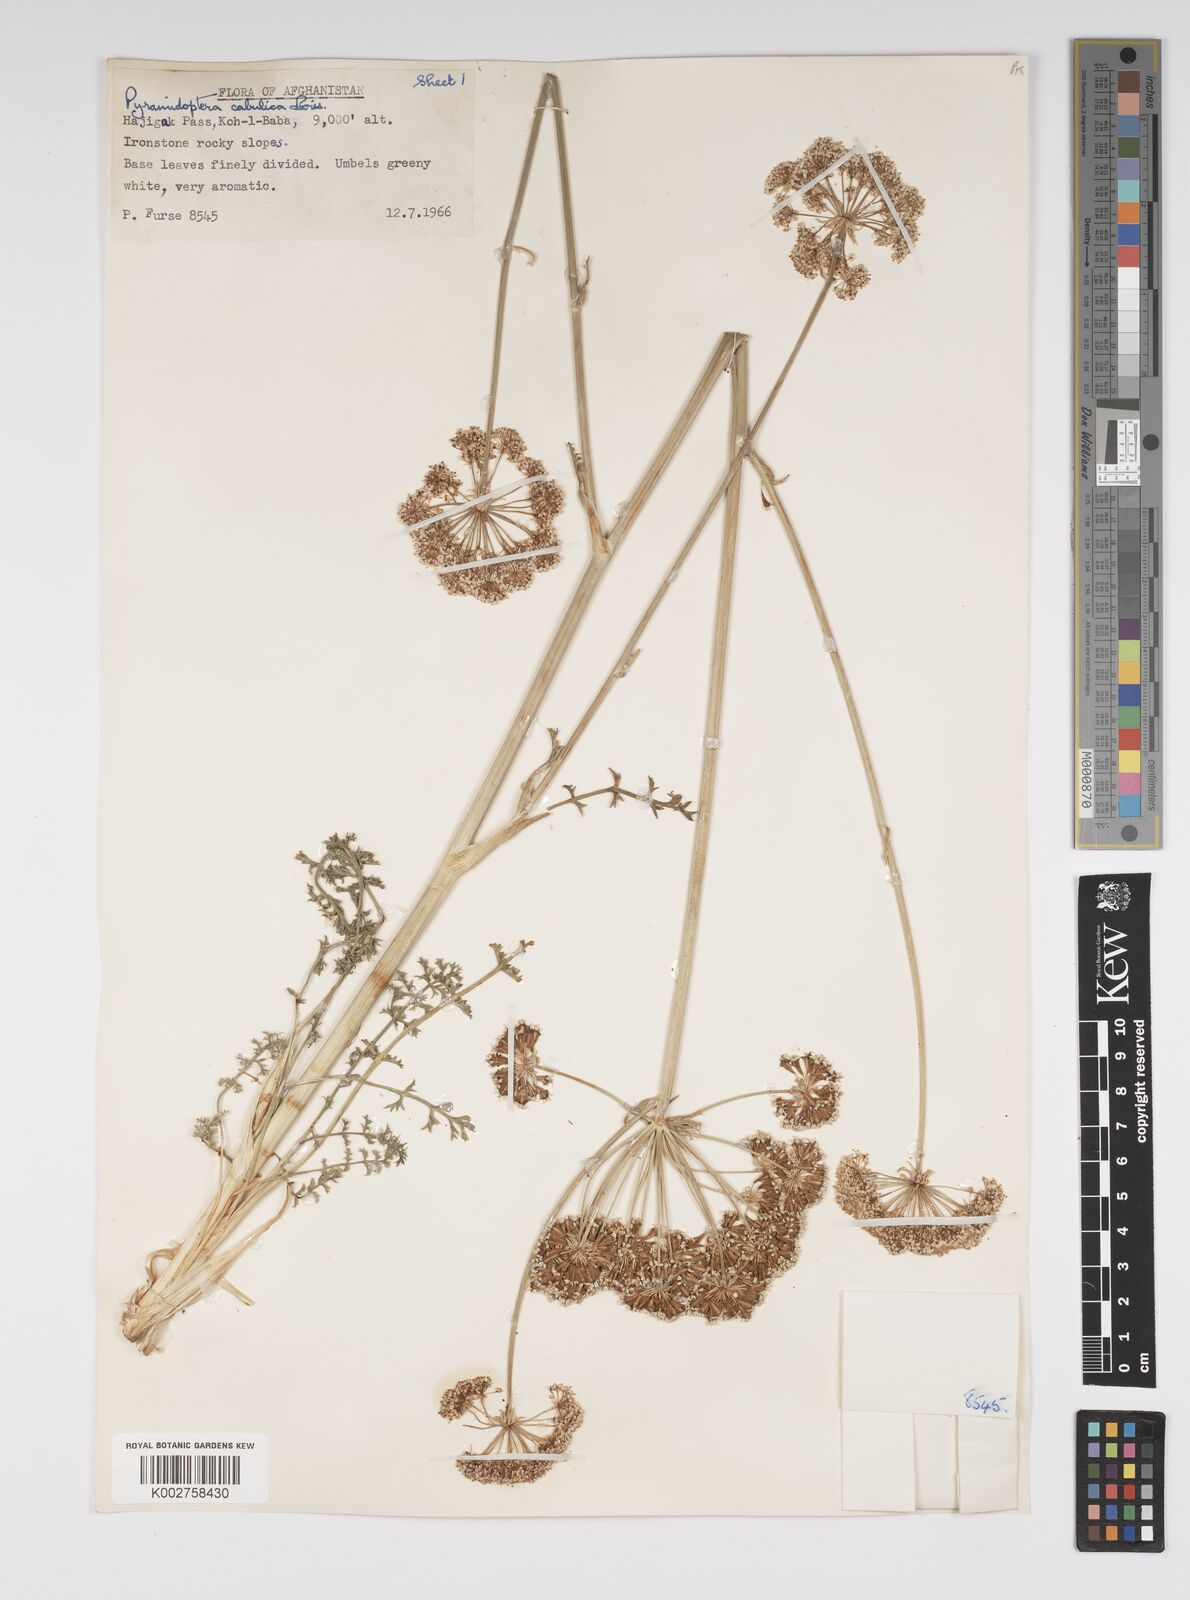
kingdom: Plantae
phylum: Tracheophyta
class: Magnoliopsida
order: Apiales
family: Apiaceae
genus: Pyramidoptera
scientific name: Pyramidoptera cabulica
